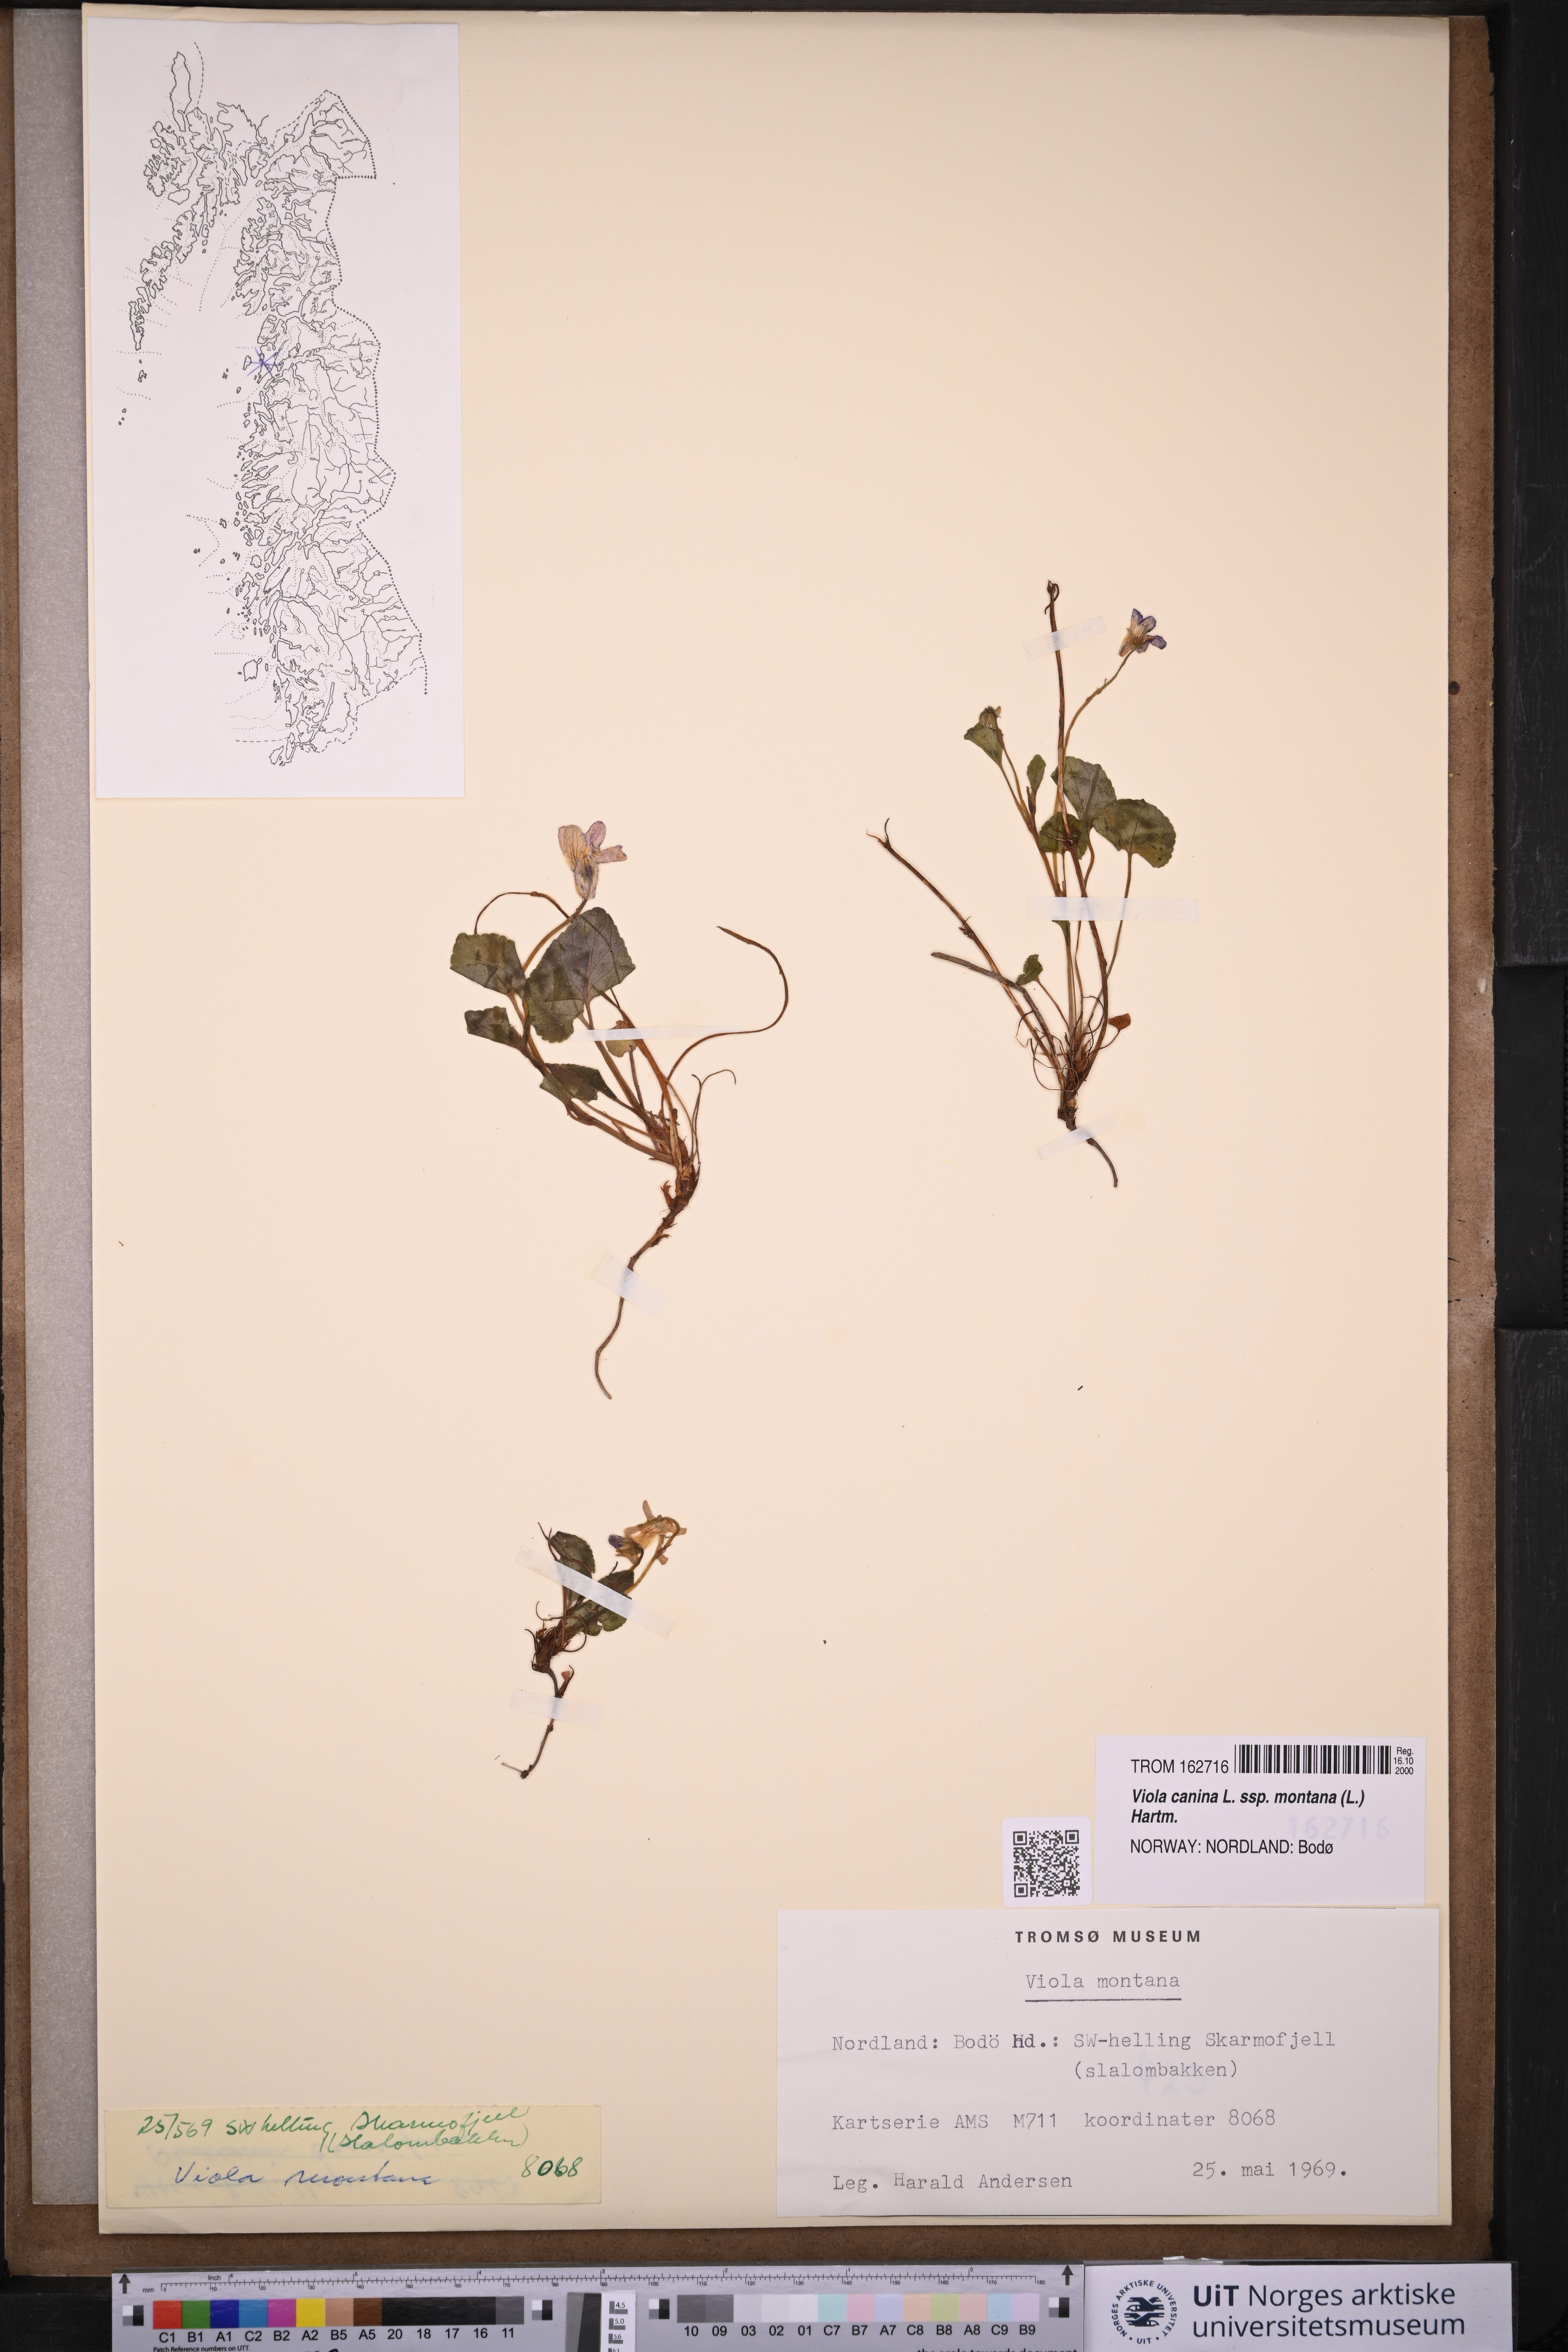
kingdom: Plantae
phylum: Tracheophyta
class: Magnoliopsida
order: Malpighiales
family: Violaceae
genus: Viola
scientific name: Viola ruppii
